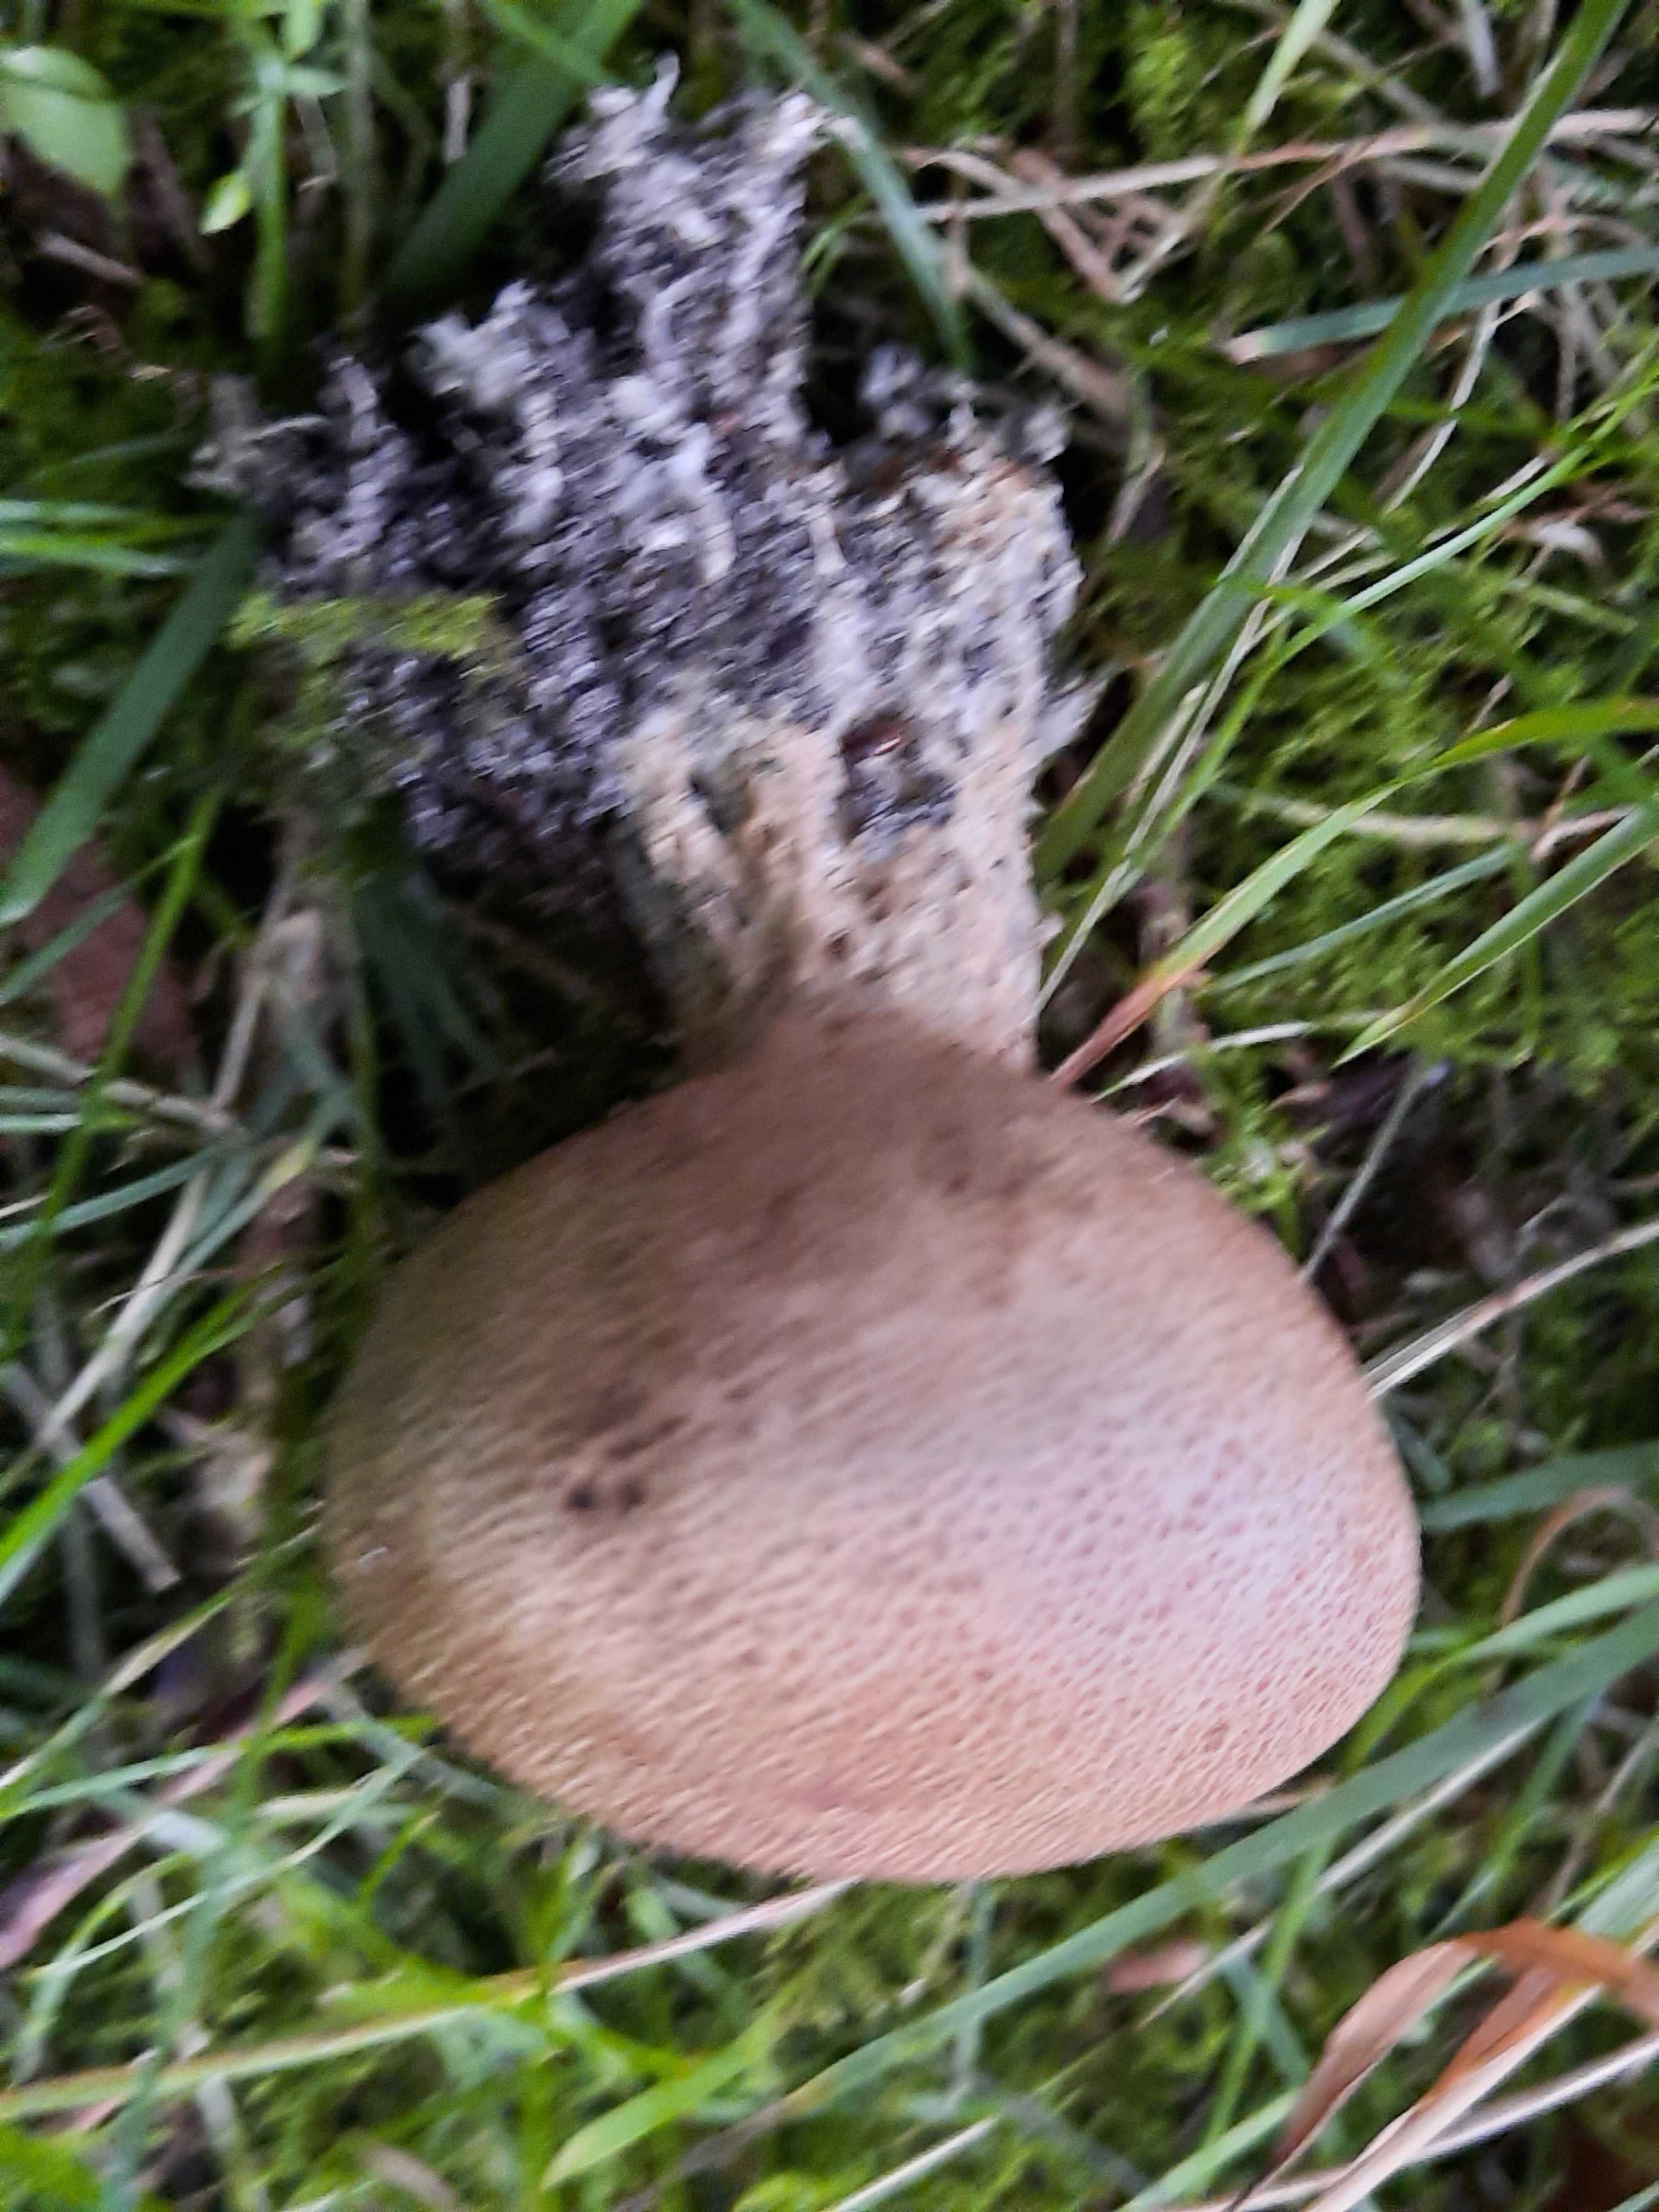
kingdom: Fungi
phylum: Basidiomycota
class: Agaricomycetes
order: Boletales
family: Sclerodermataceae
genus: Scleroderma
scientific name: Scleroderma verrucosum
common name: stilket bruskbold
